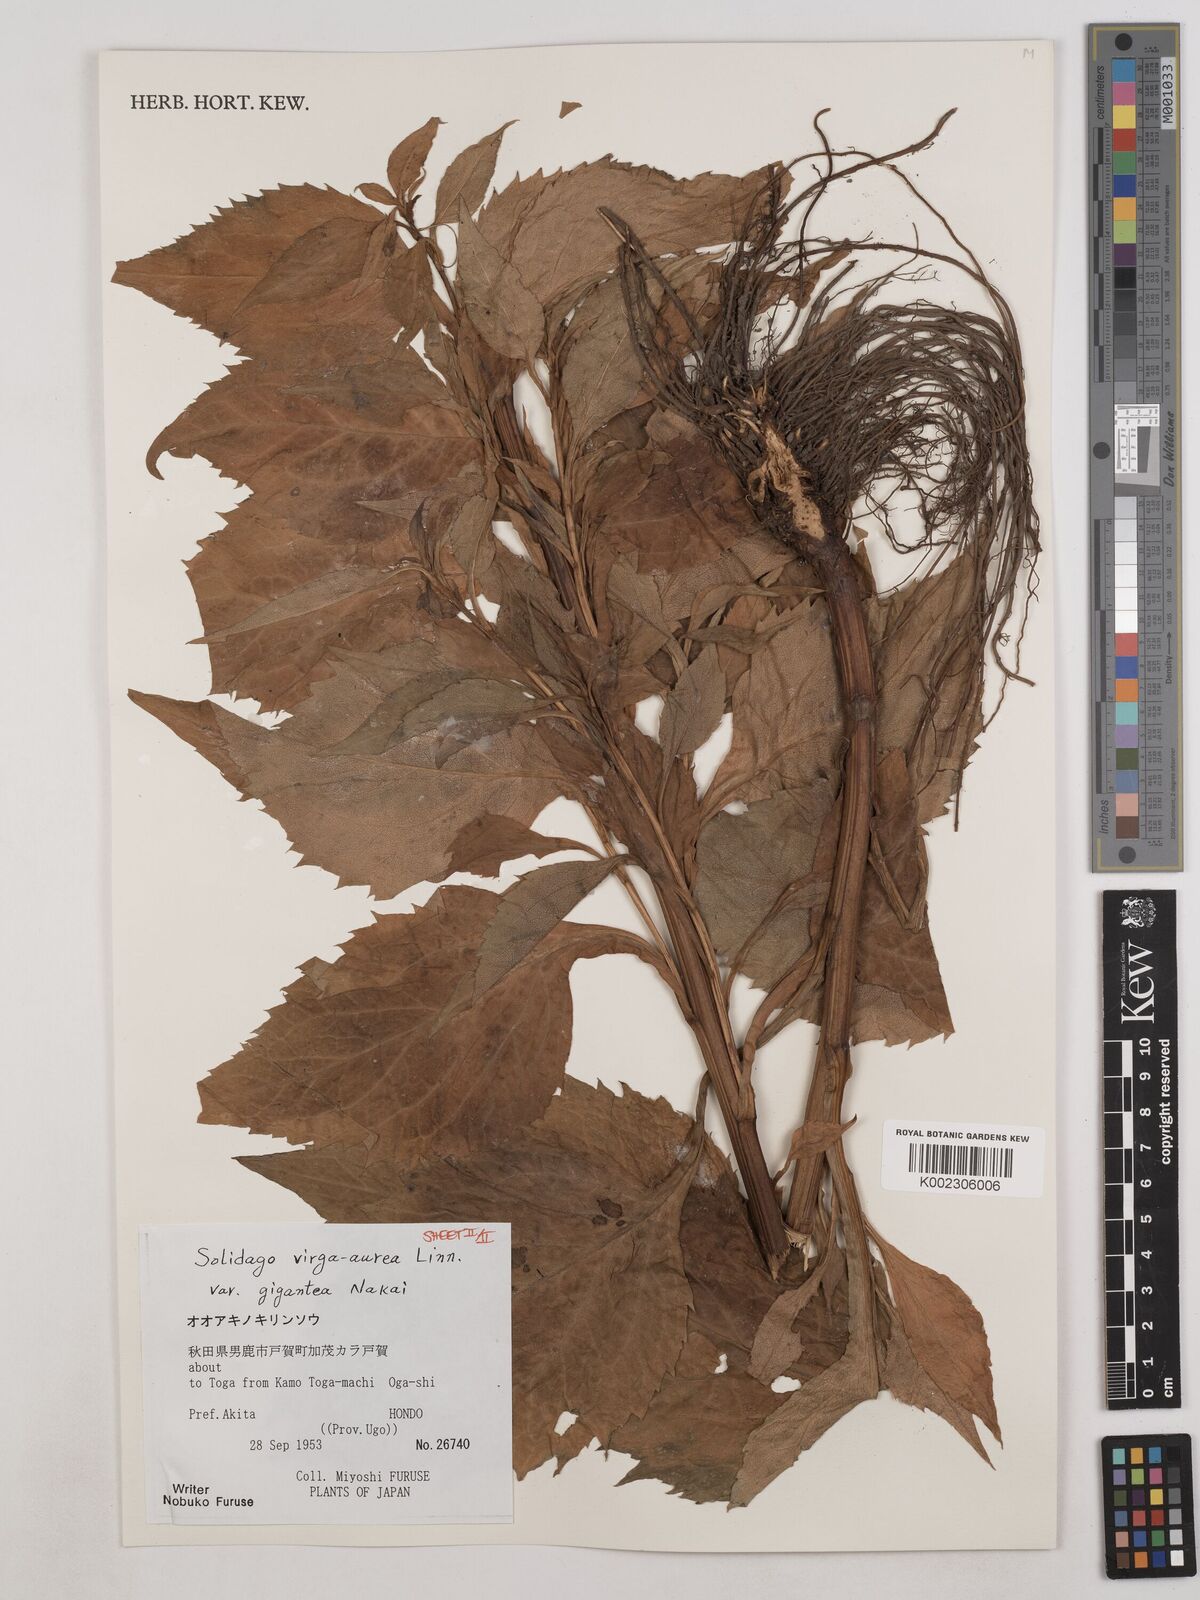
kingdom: Plantae
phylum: Tracheophyta
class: Magnoliopsida
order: Asterales
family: Asteraceae
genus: Solidago
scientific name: Solidago nipponica
